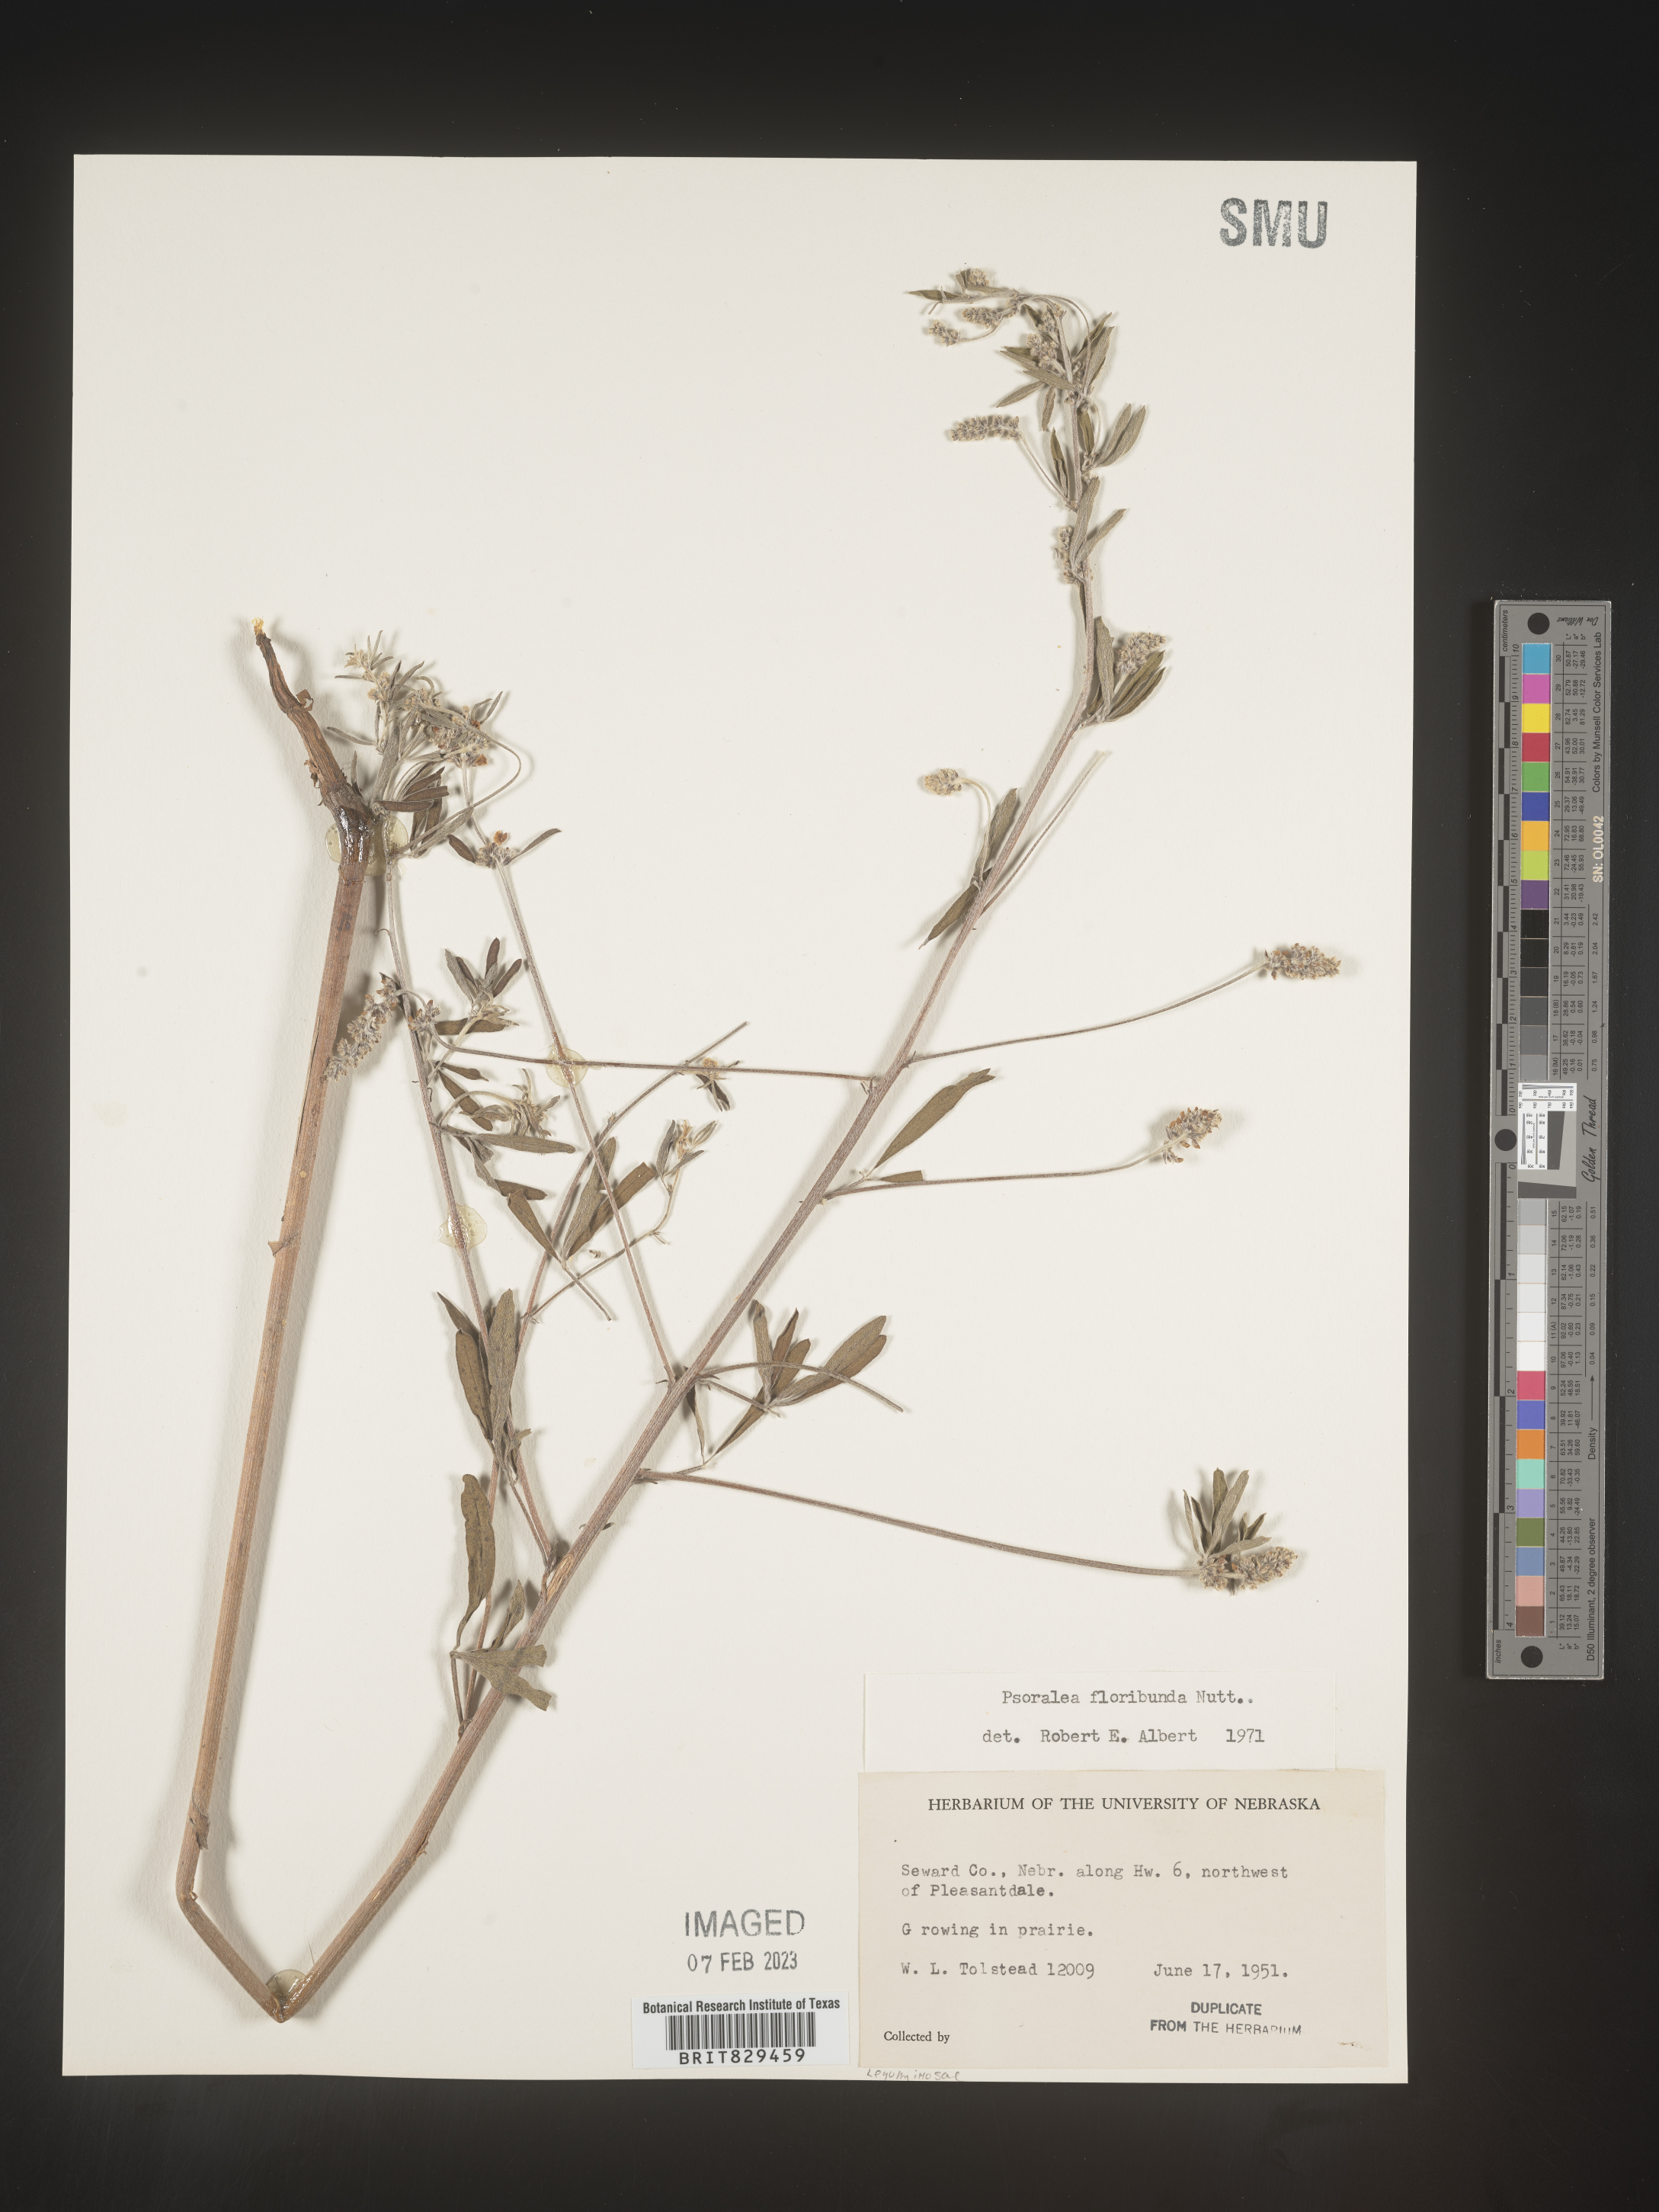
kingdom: Plantae
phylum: Tracheophyta
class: Magnoliopsida
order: Fabales
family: Fabaceae
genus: Psoralea
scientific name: Psoralea
